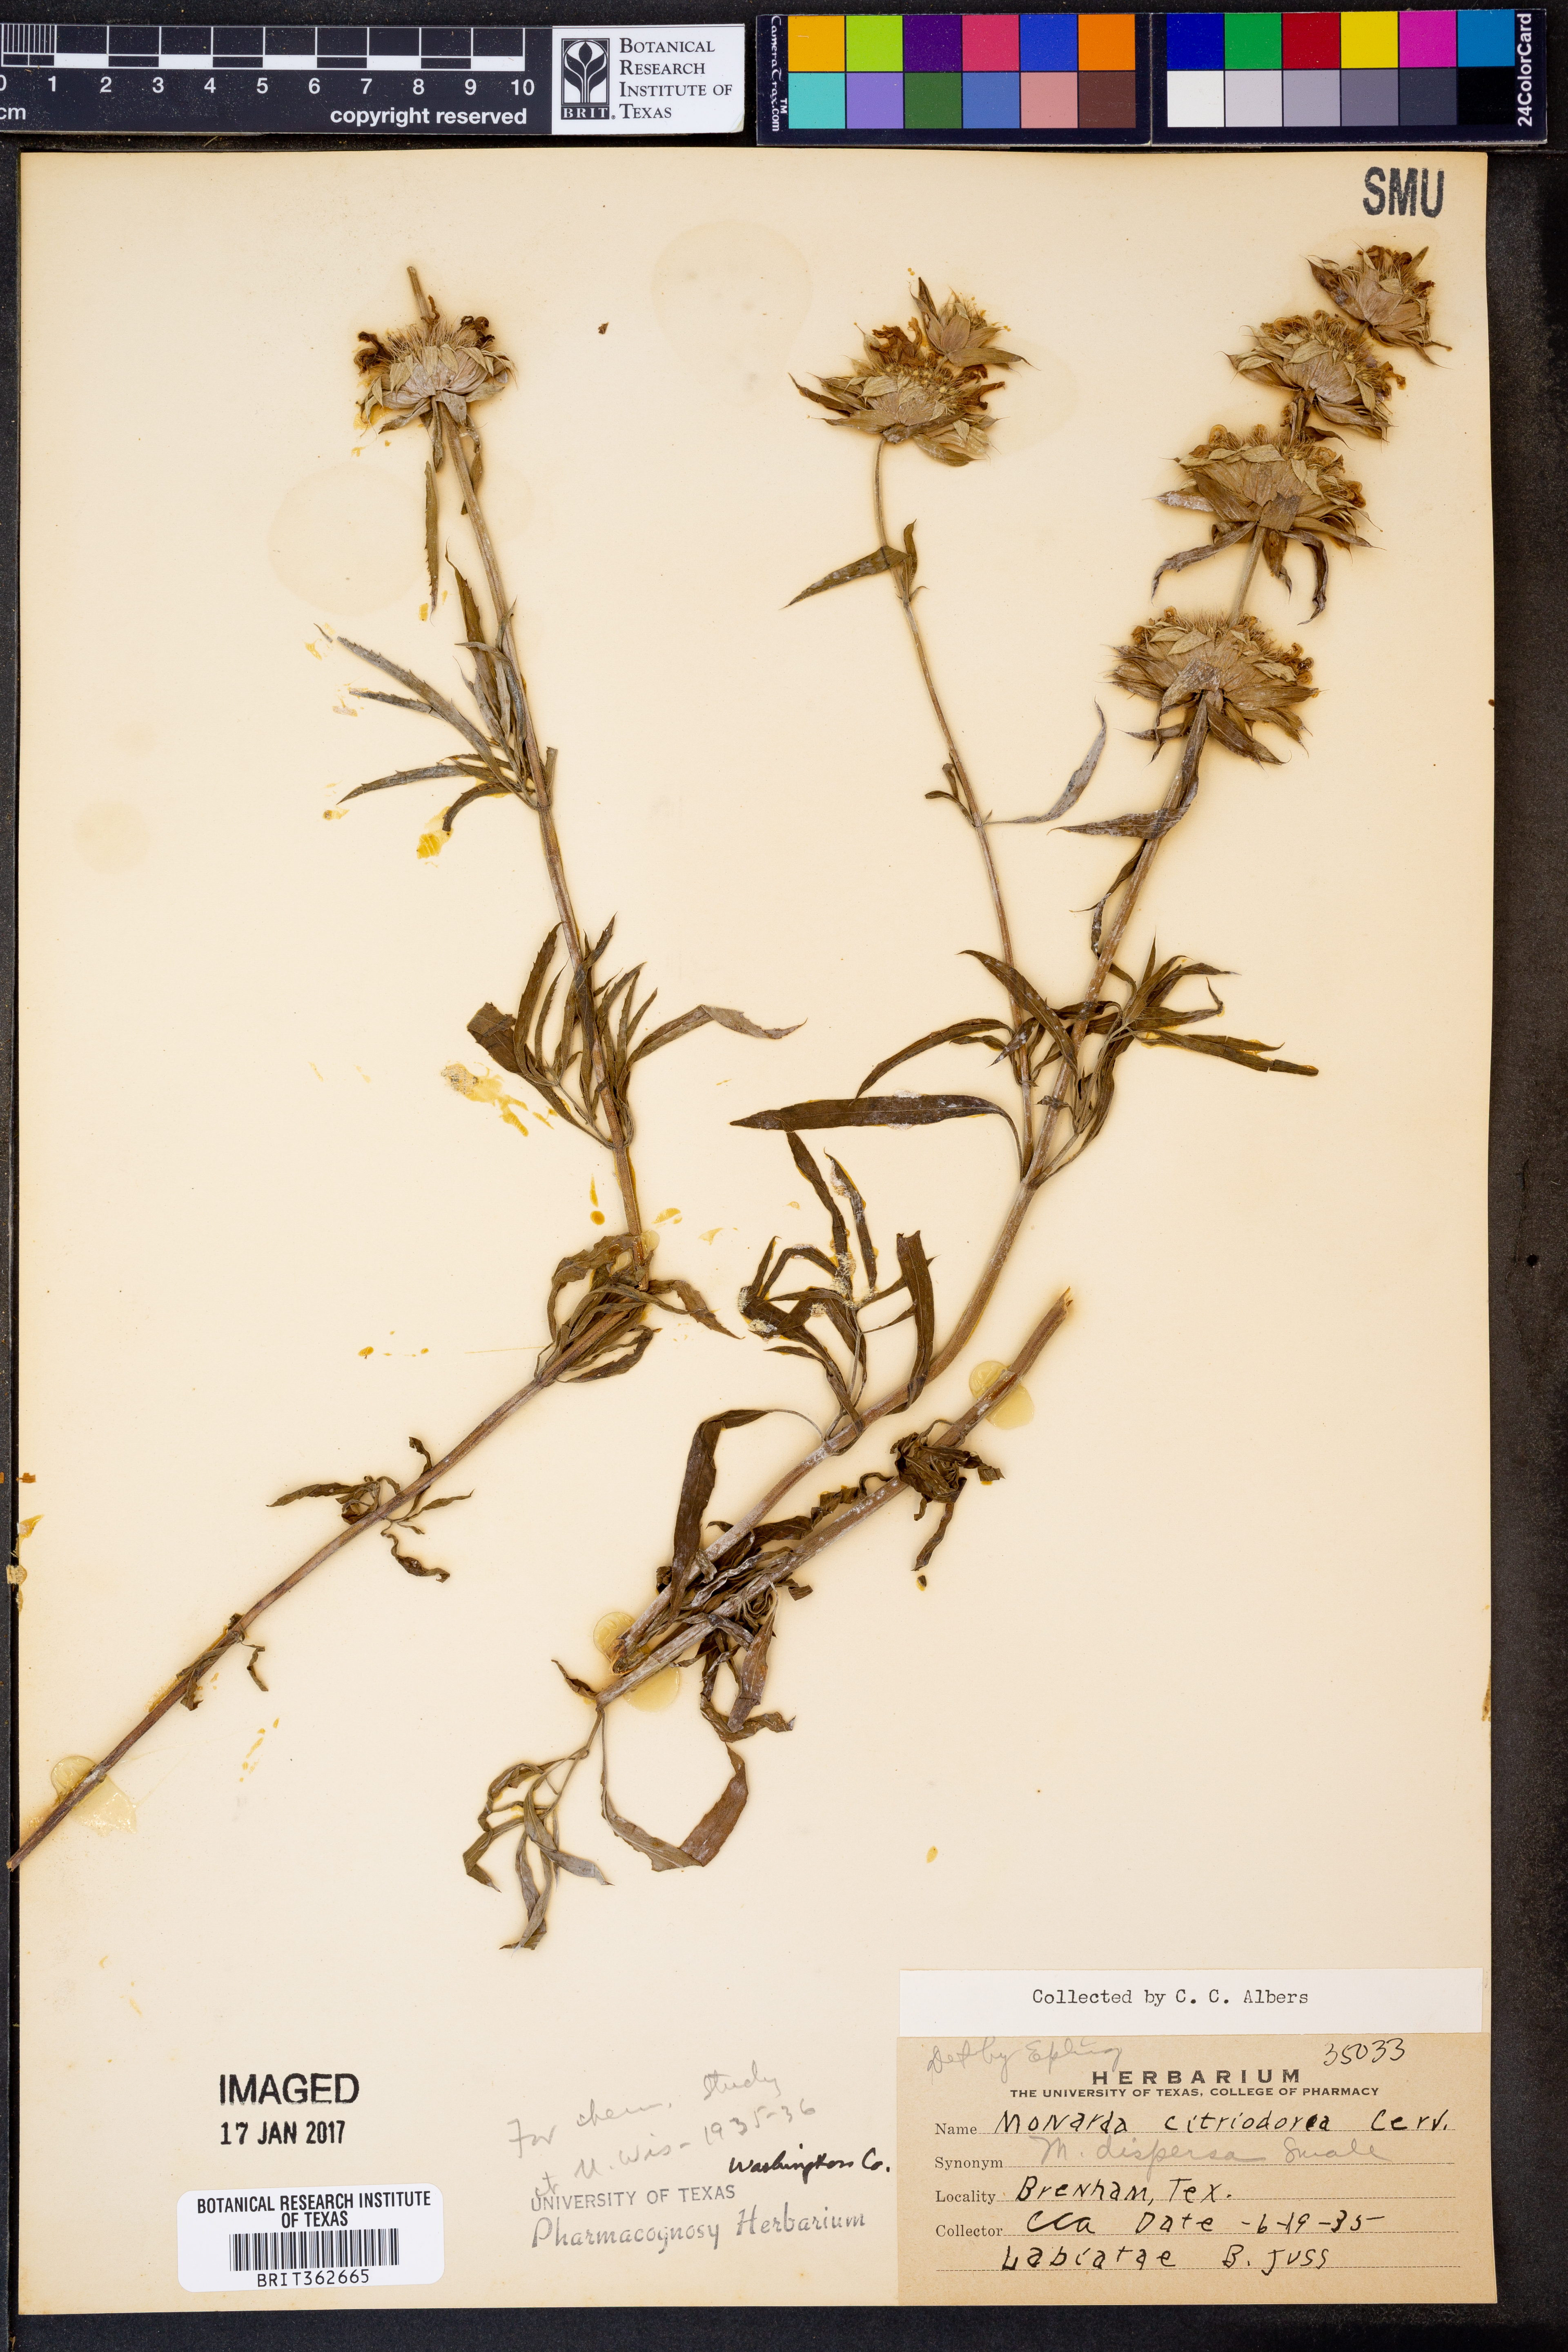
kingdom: Plantae
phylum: Tracheophyta
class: Magnoliopsida
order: Lamiales
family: Lamiaceae
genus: Monarda
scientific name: Monarda citriodora
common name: Lemon beebalm
